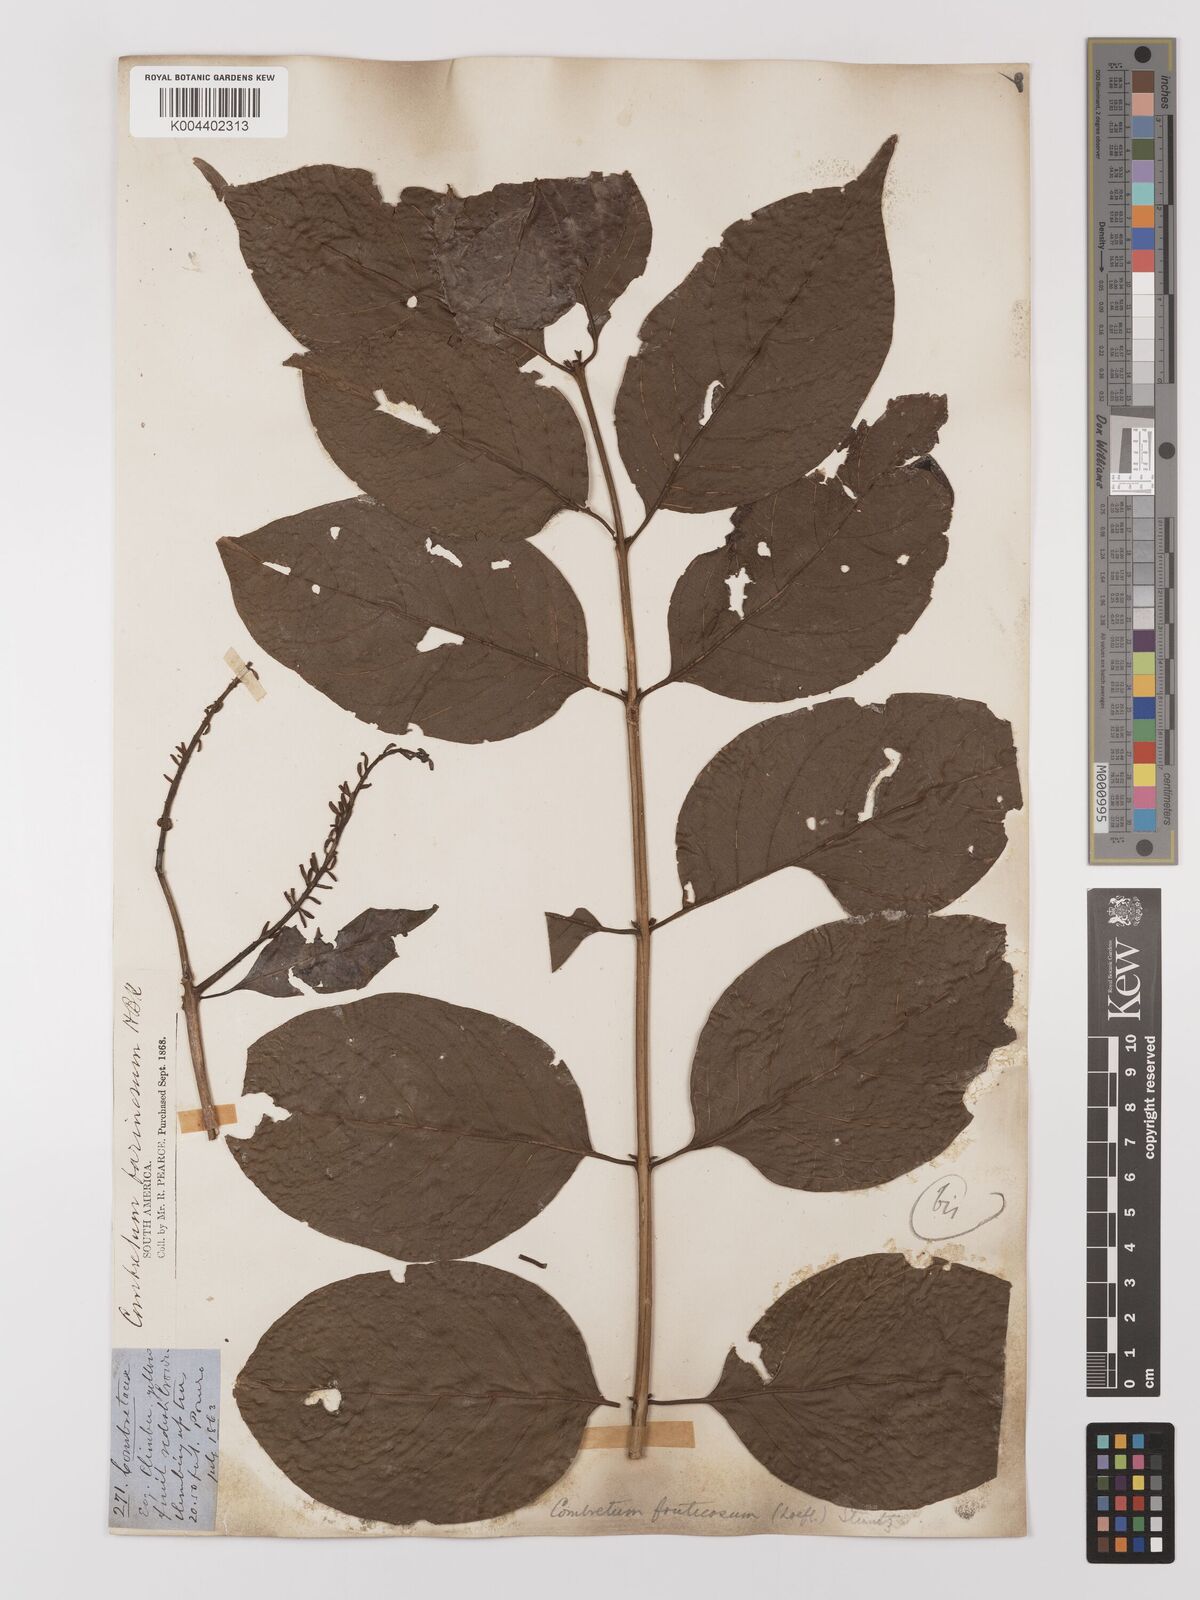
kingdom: Plantae
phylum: Tracheophyta
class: Magnoliopsida
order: Myrtales
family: Combretaceae
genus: Combretum
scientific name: Combretum fruticosum
